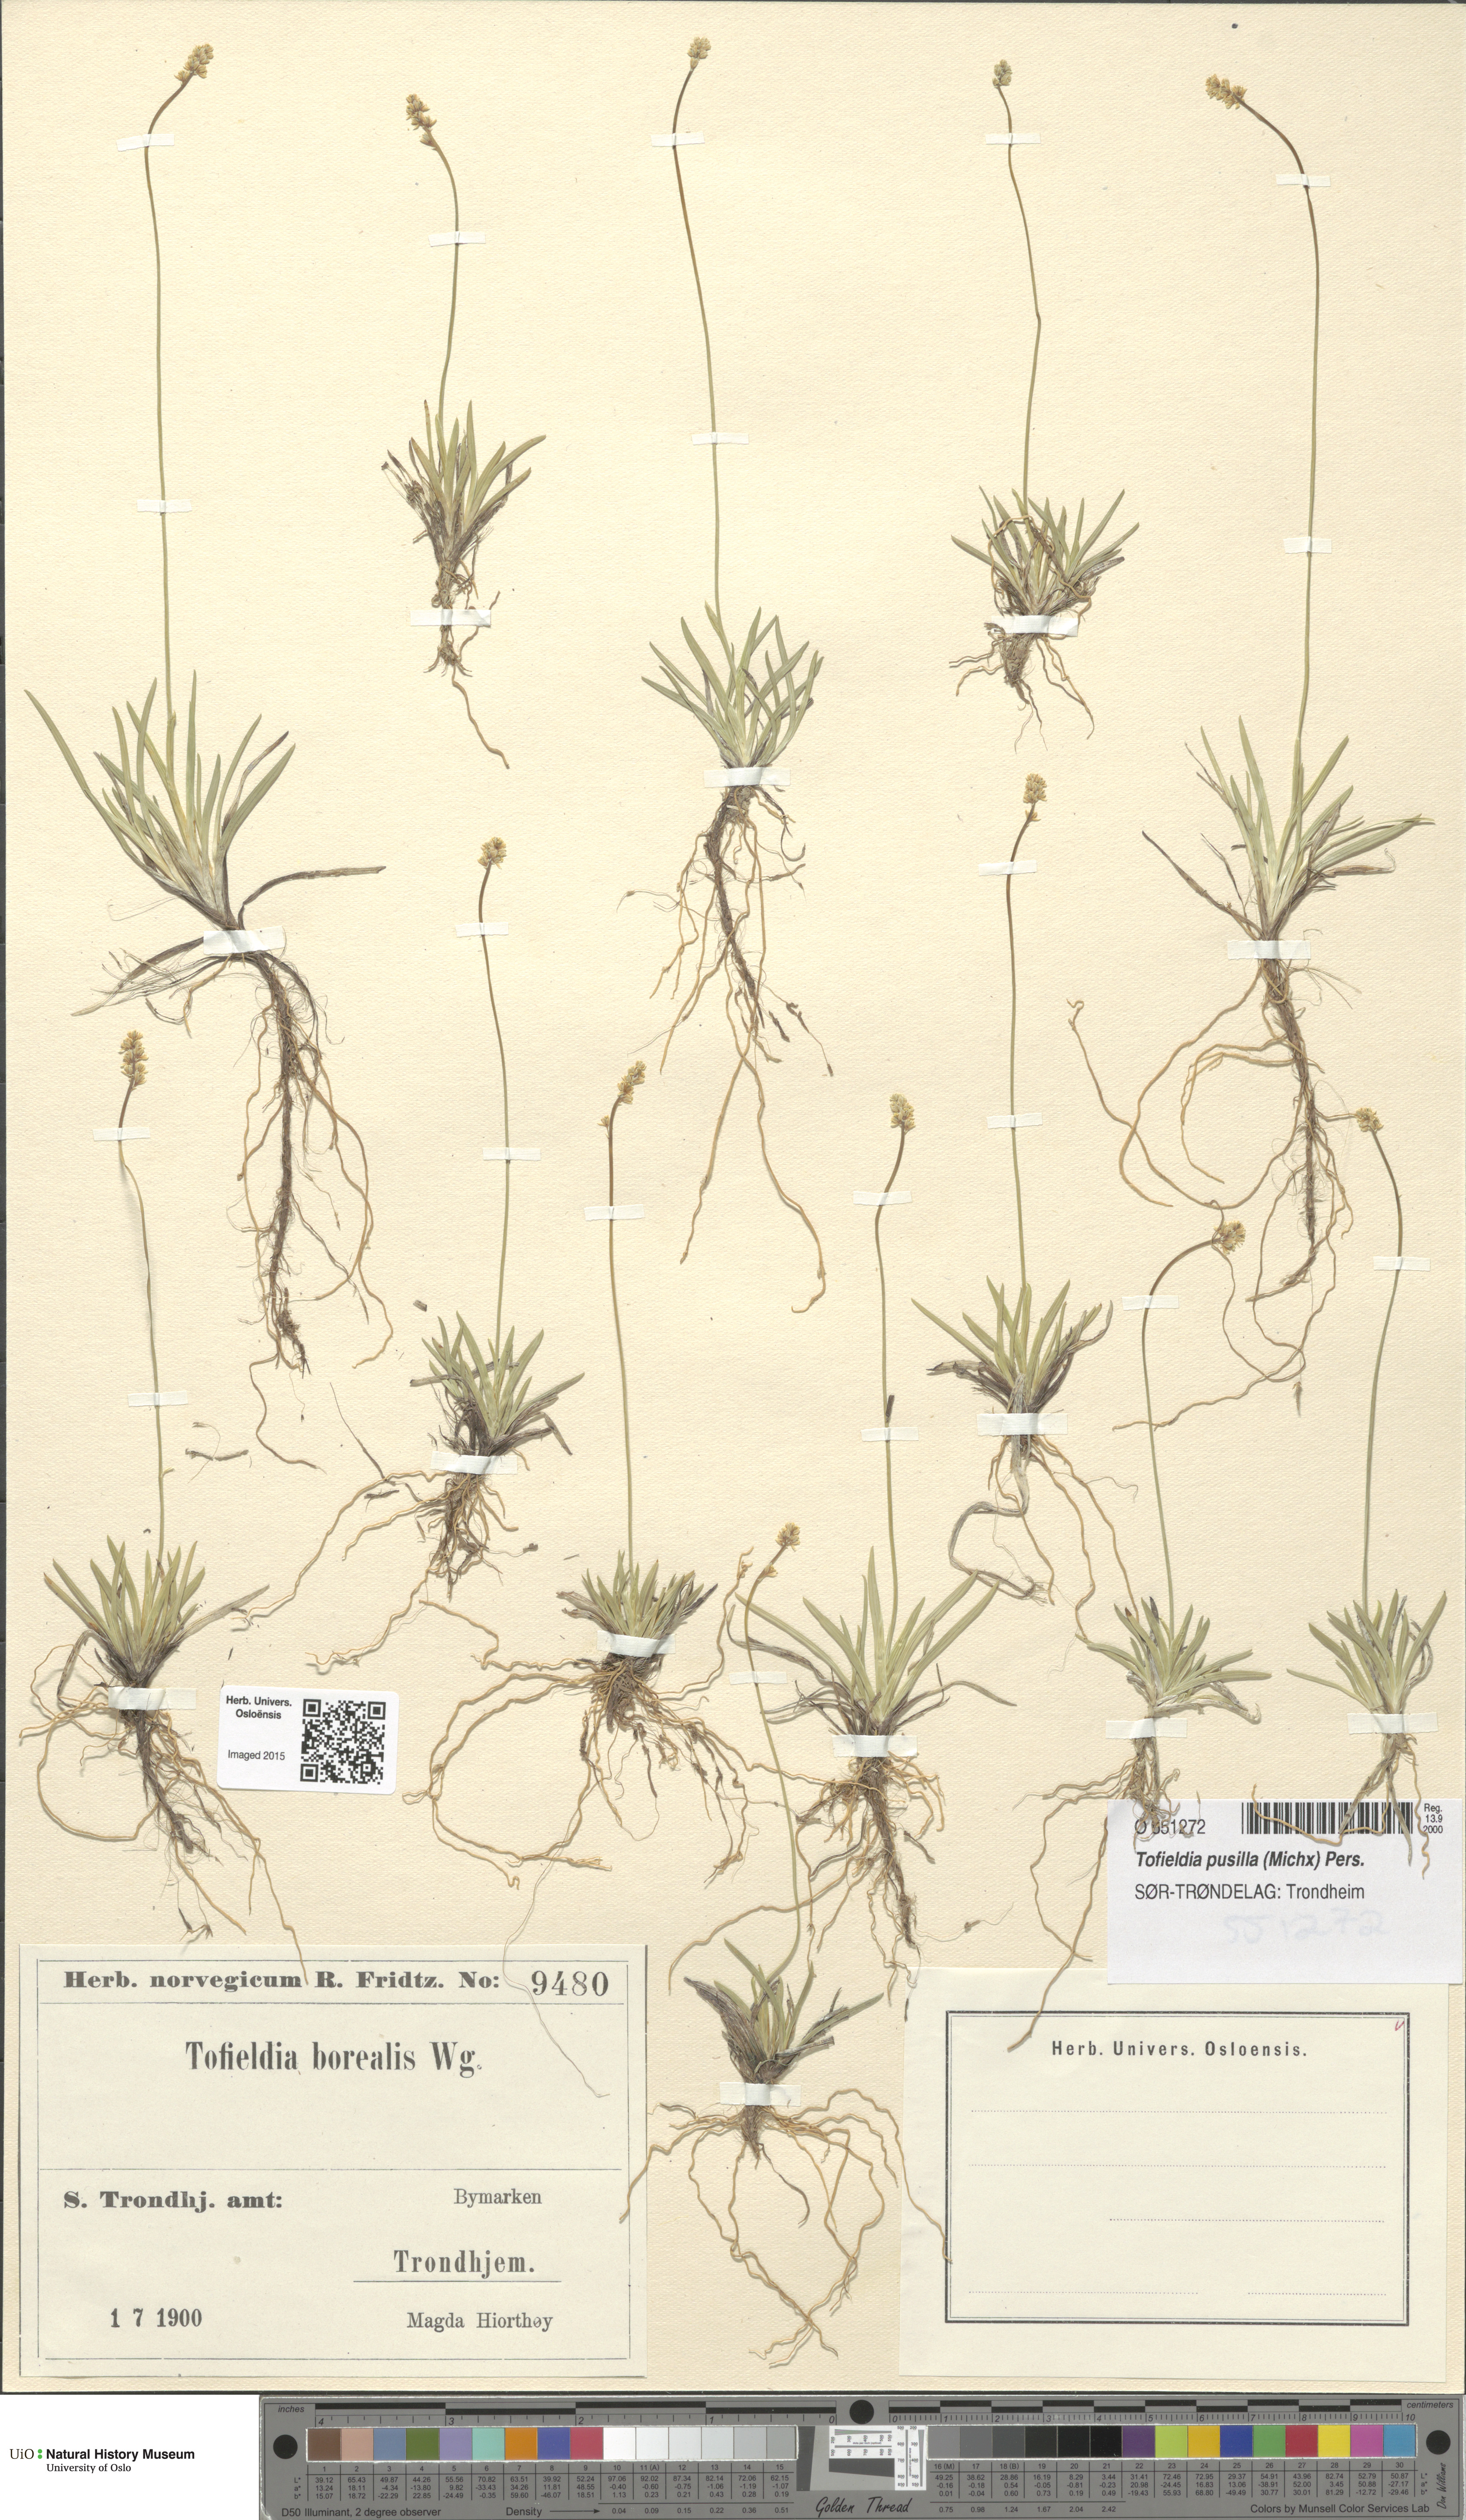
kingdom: Plantae
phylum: Tracheophyta
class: Liliopsida
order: Alismatales
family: Tofieldiaceae
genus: Tofieldia
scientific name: Tofieldia pusilla
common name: Scottish false asphodel
